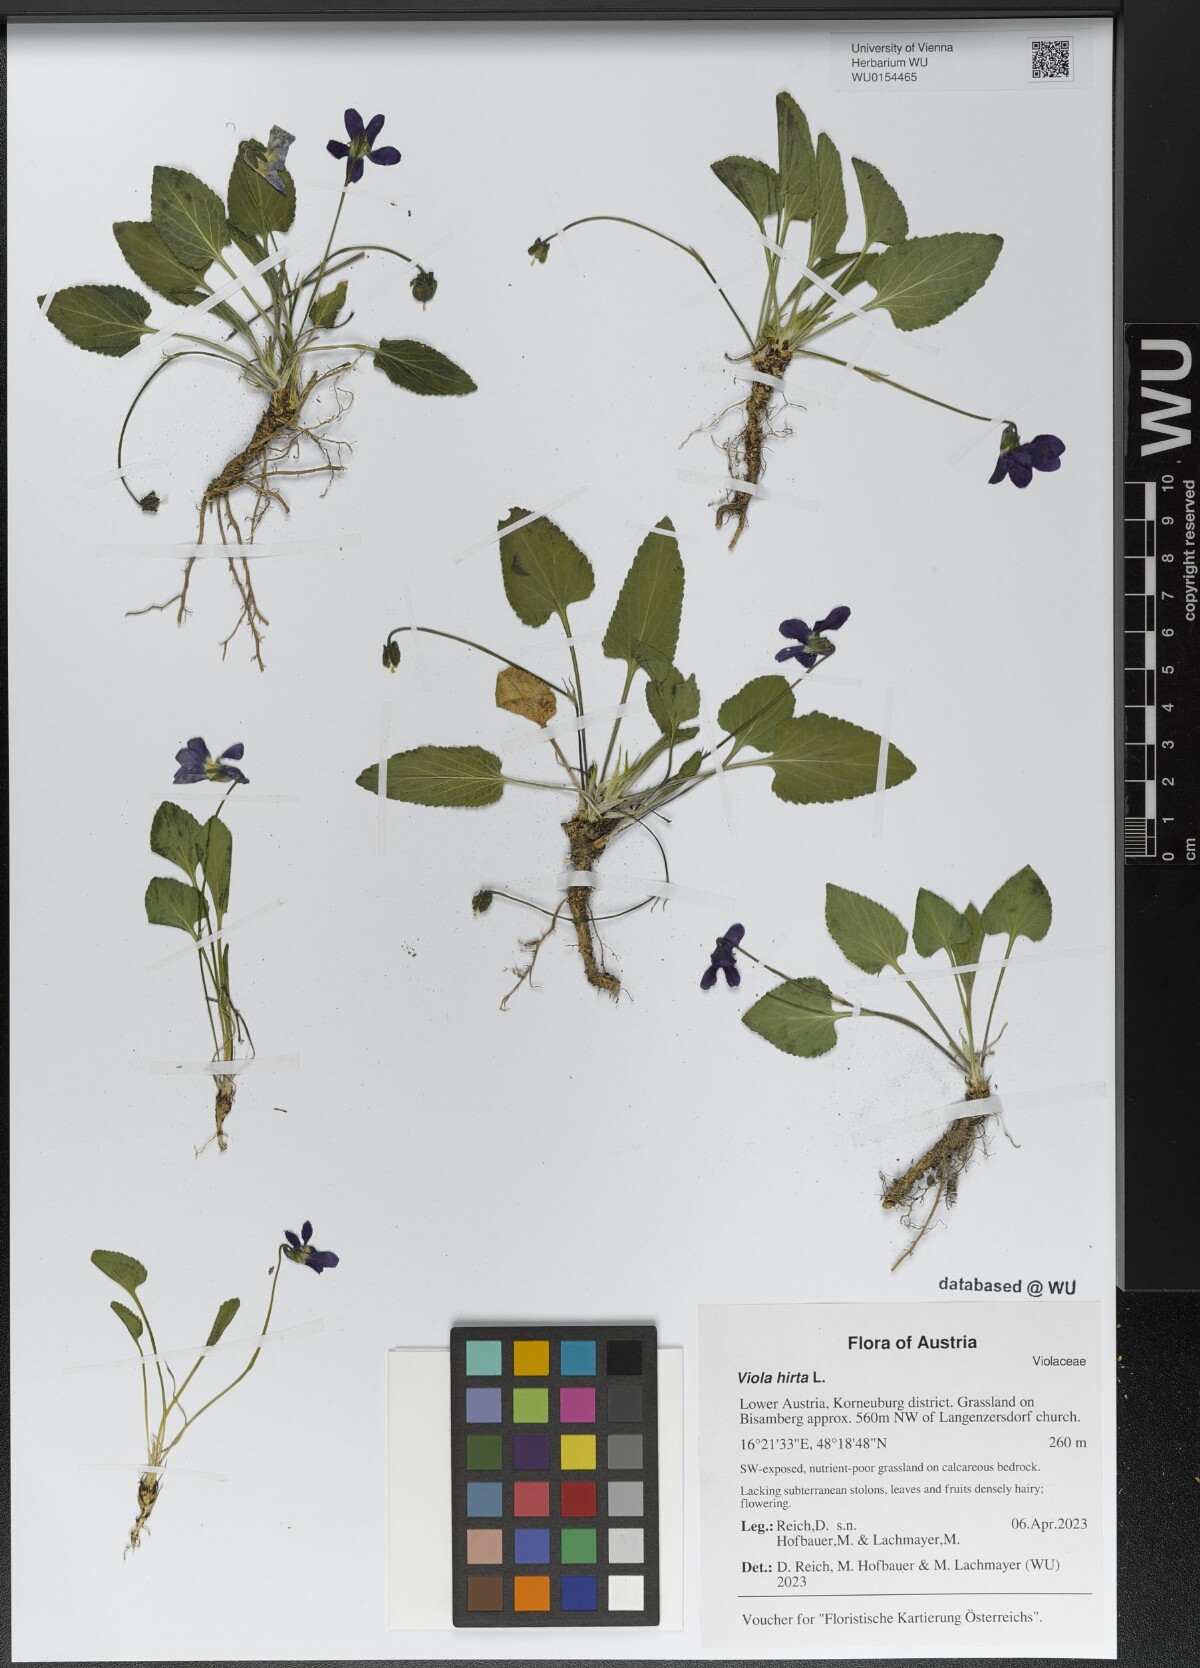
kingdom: Plantae
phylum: Tracheophyta
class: Magnoliopsida
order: Malpighiales
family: Violaceae
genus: Viola
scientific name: Viola hirta
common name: Hairy violet
